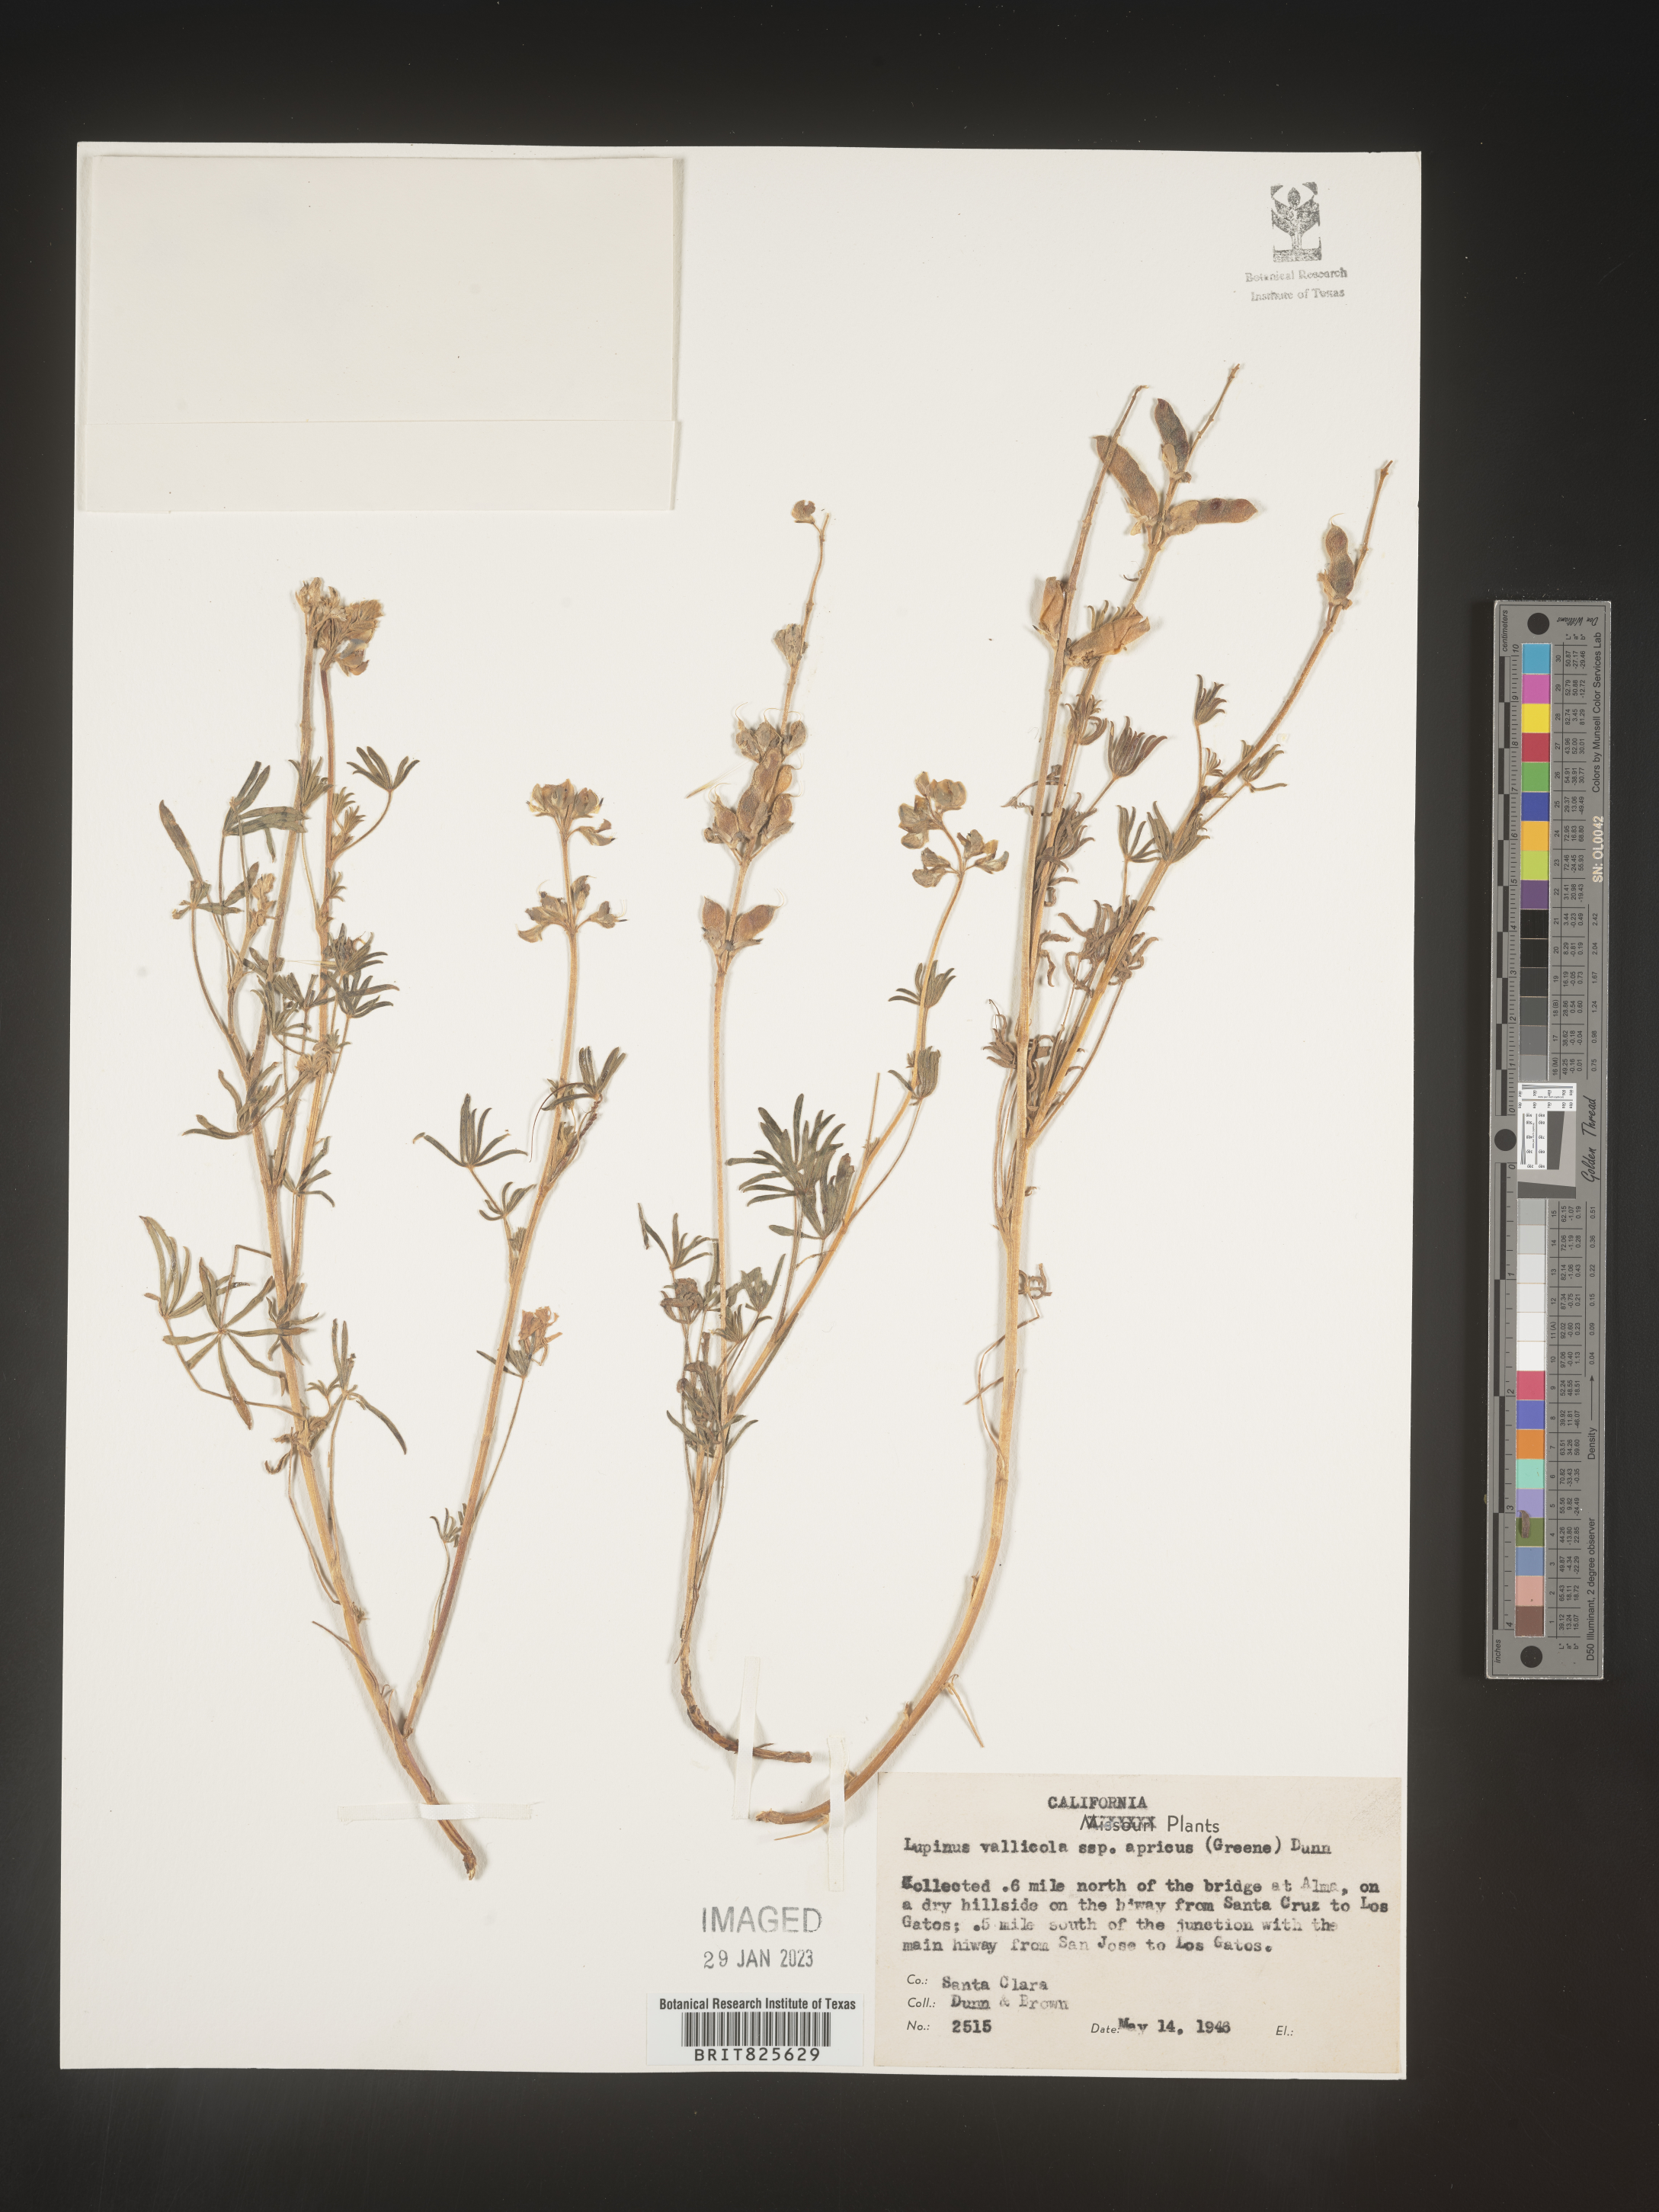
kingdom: Plantae
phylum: Tracheophyta
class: Magnoliopsida
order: Fabales
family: Fabaceae
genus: Lupinus
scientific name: Lupinus
